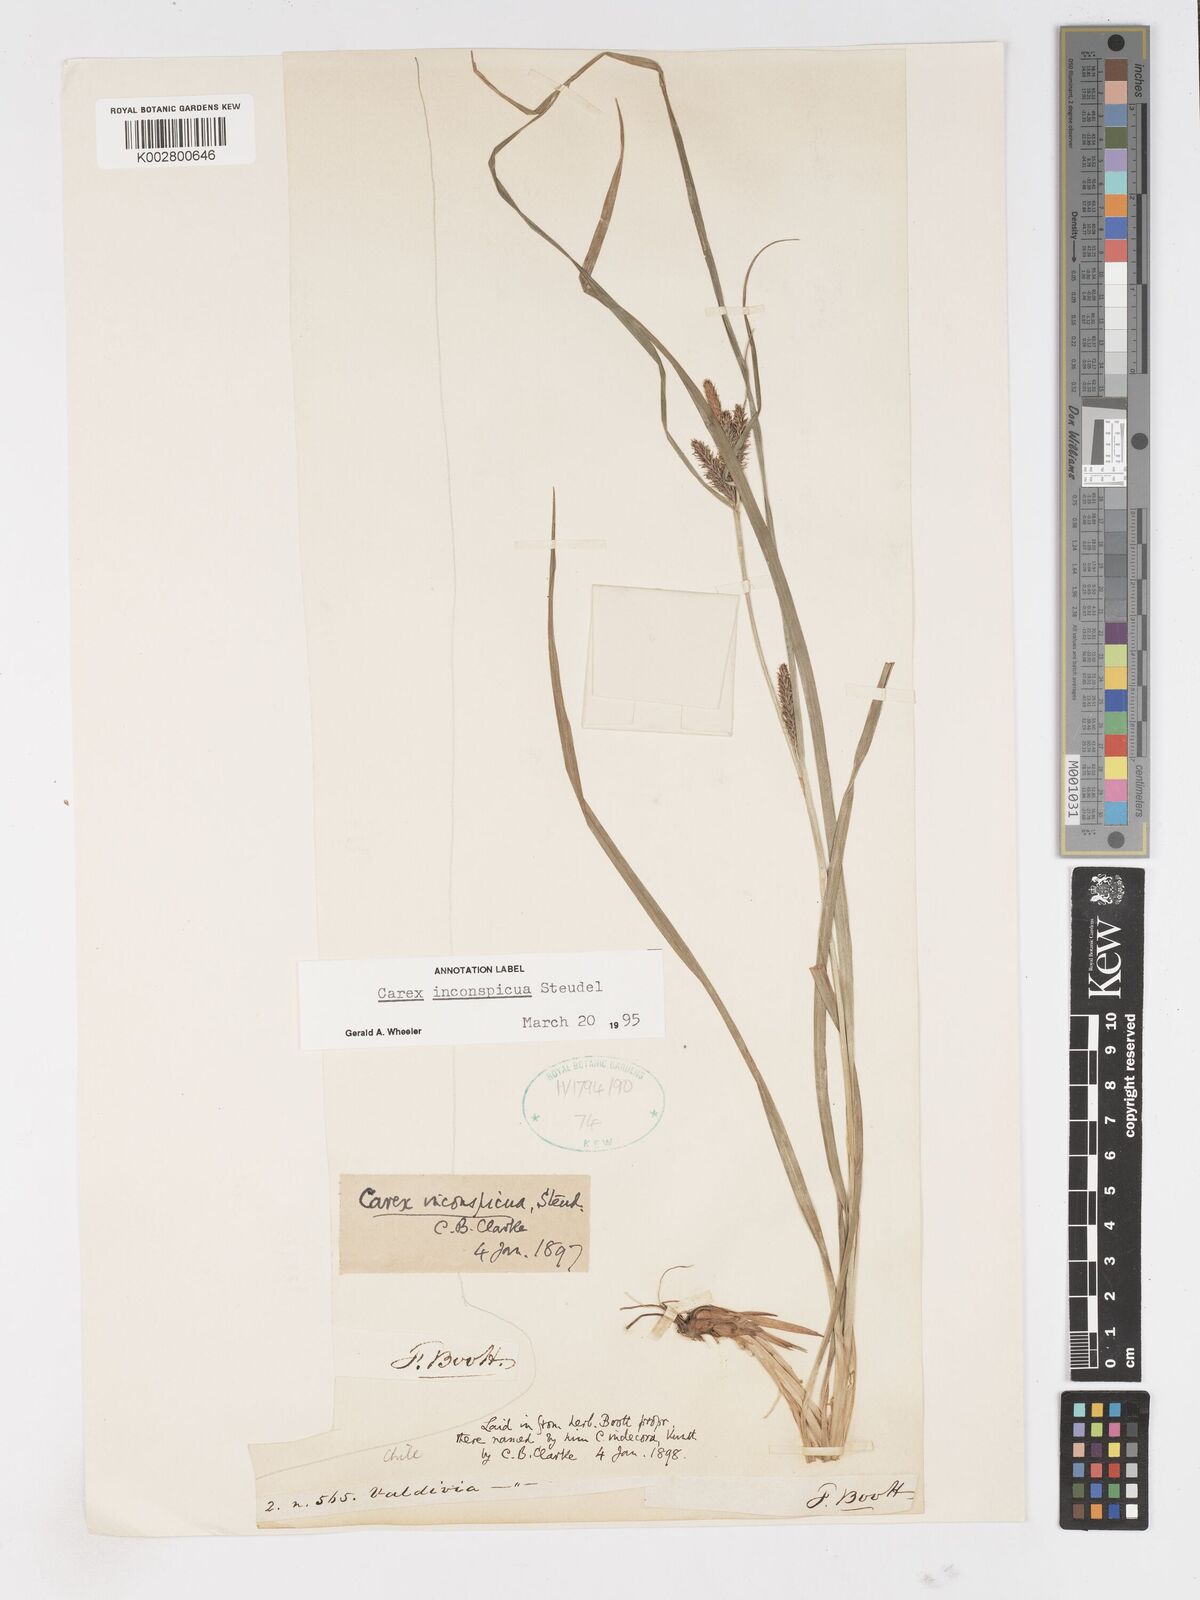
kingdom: Plantae
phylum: Tracheophyta
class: Liliopsida
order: Poales
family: Cyperaceae
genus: Carex
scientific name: Carex fuscula
